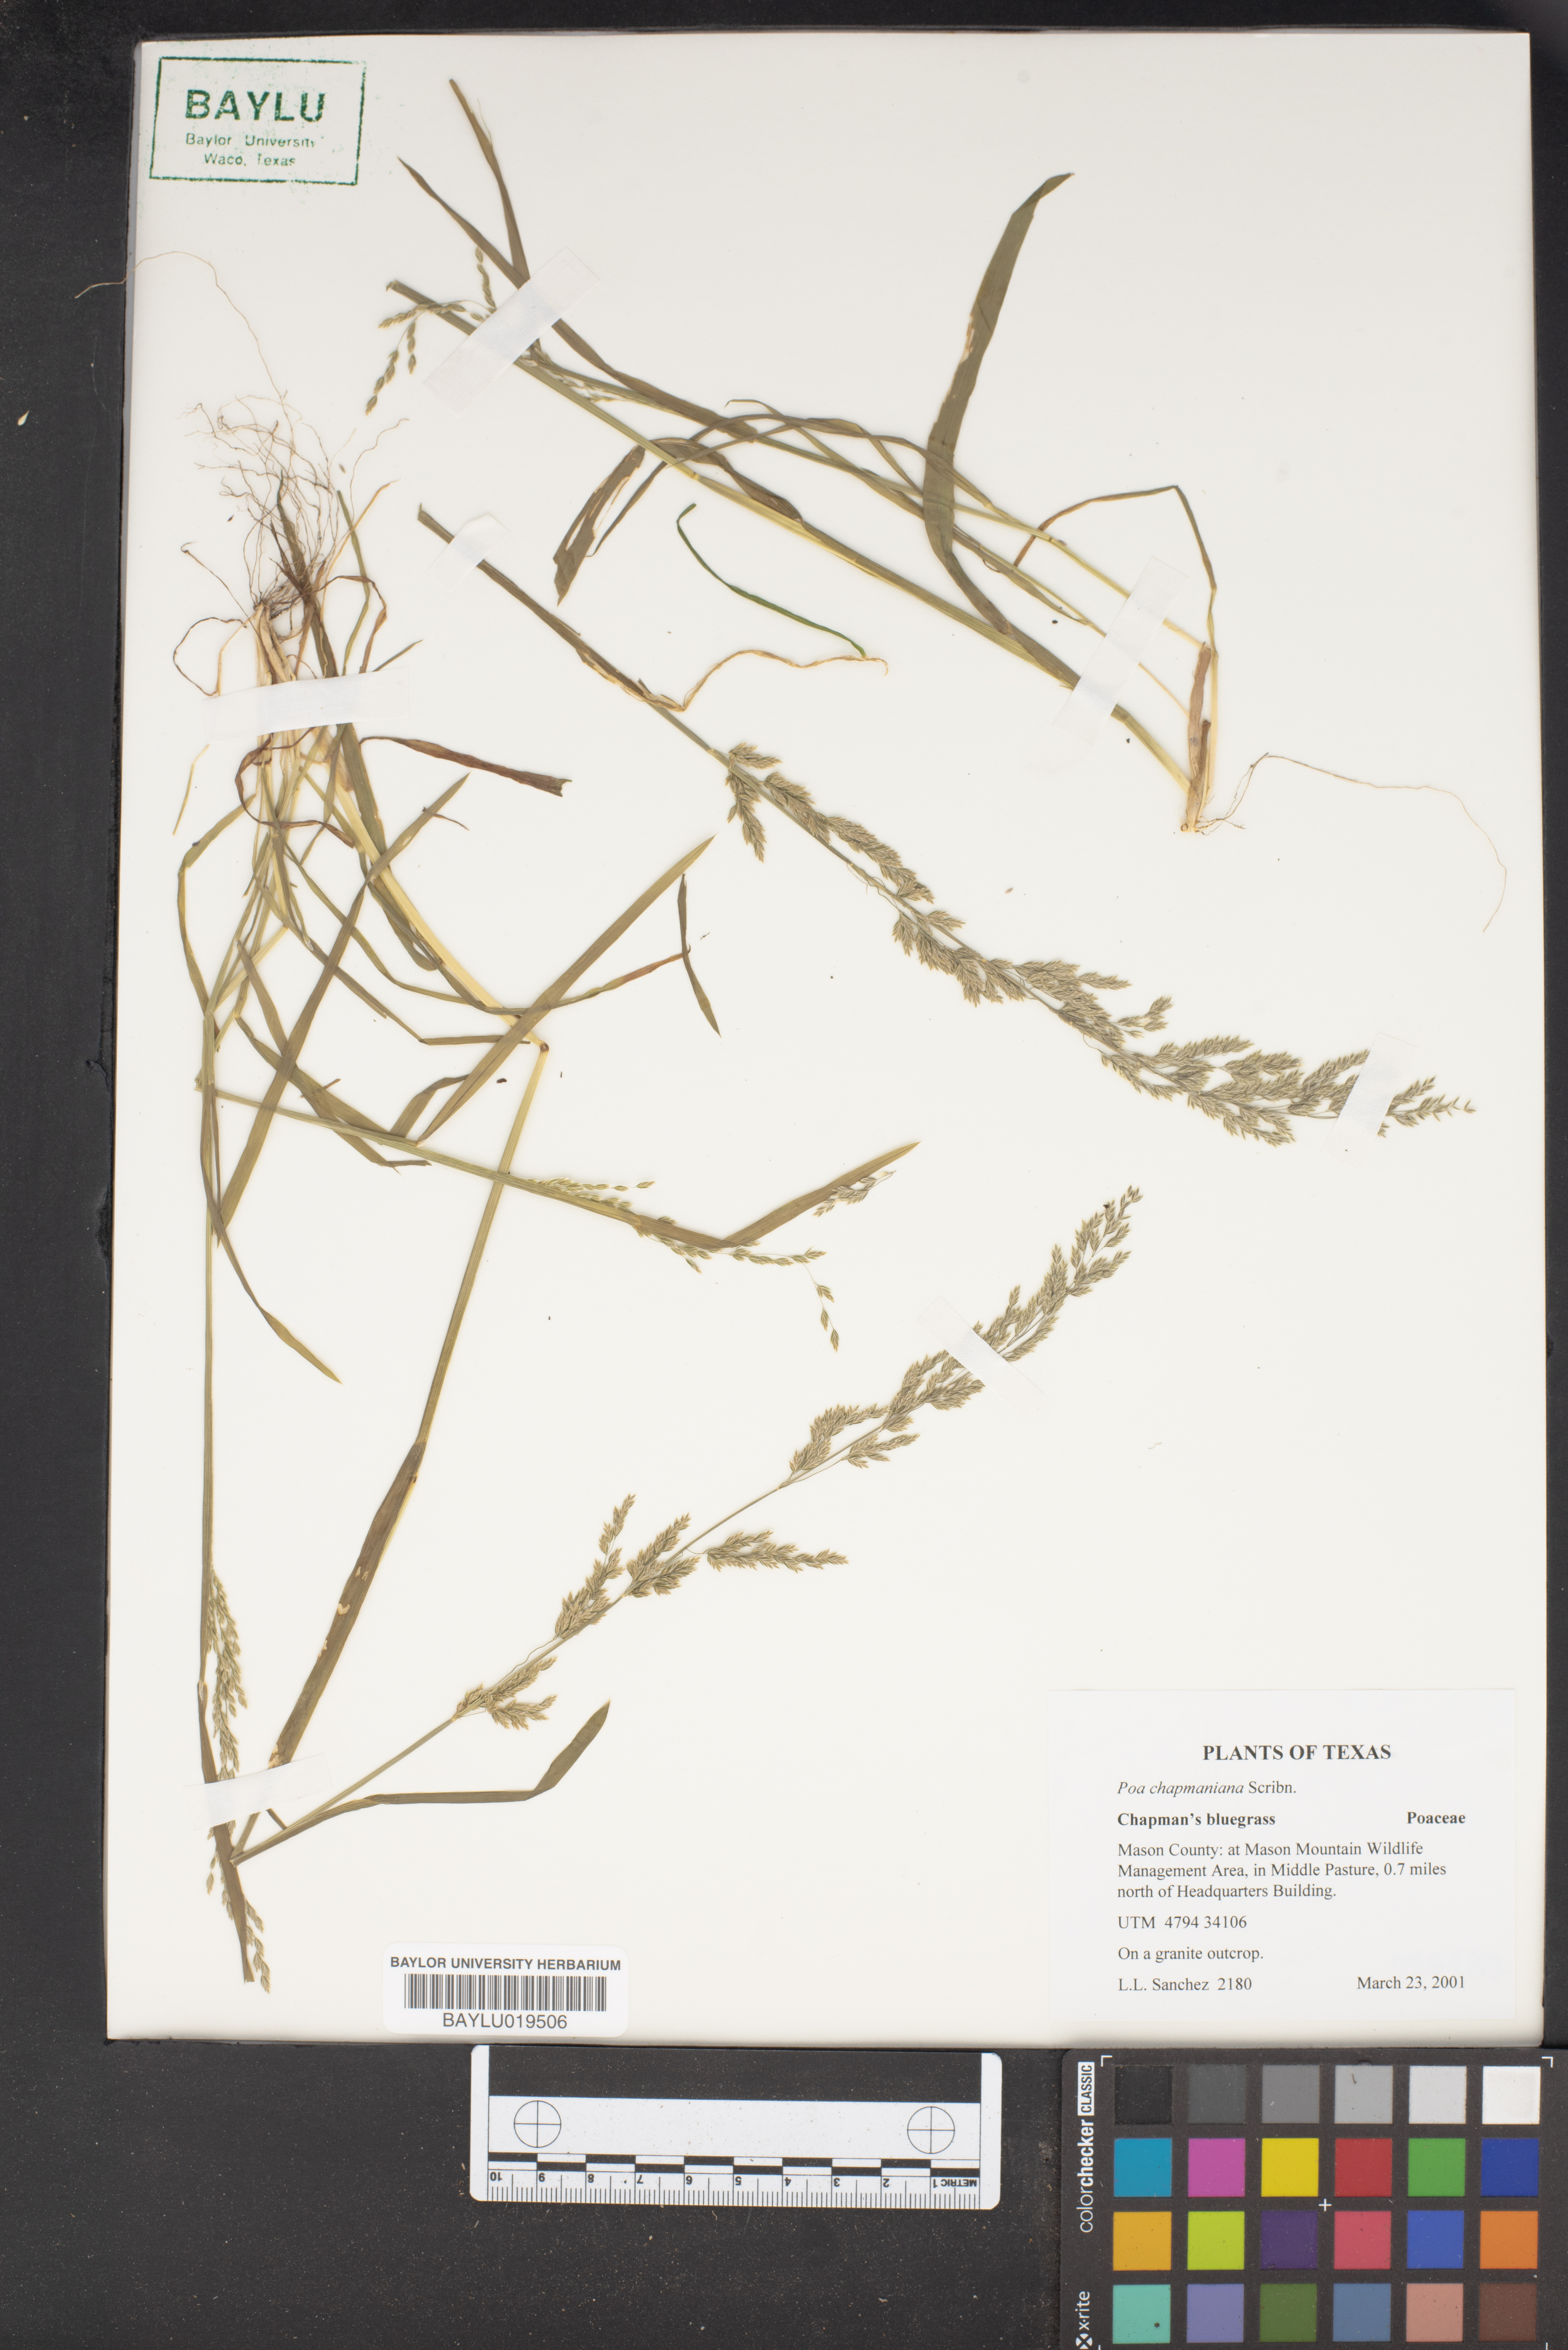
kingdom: Plantae
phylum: Tracheophyta
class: Liliopsida
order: Poales
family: Poaceae
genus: Poa
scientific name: Poa chapmaniana
